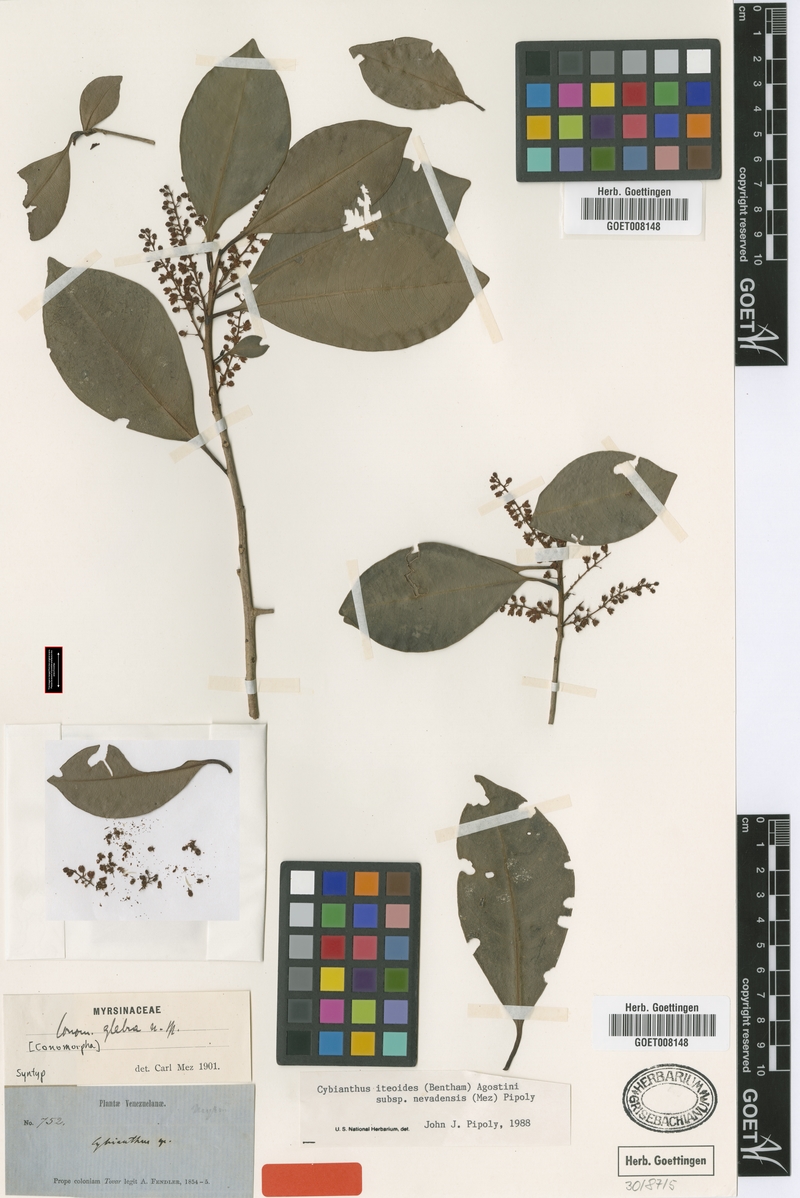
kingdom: Plantae
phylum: Tracheophyta
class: Magnoliopsida
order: Ericales
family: Primulaceae
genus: Cybianthus
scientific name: Cybianthus nevadensis
